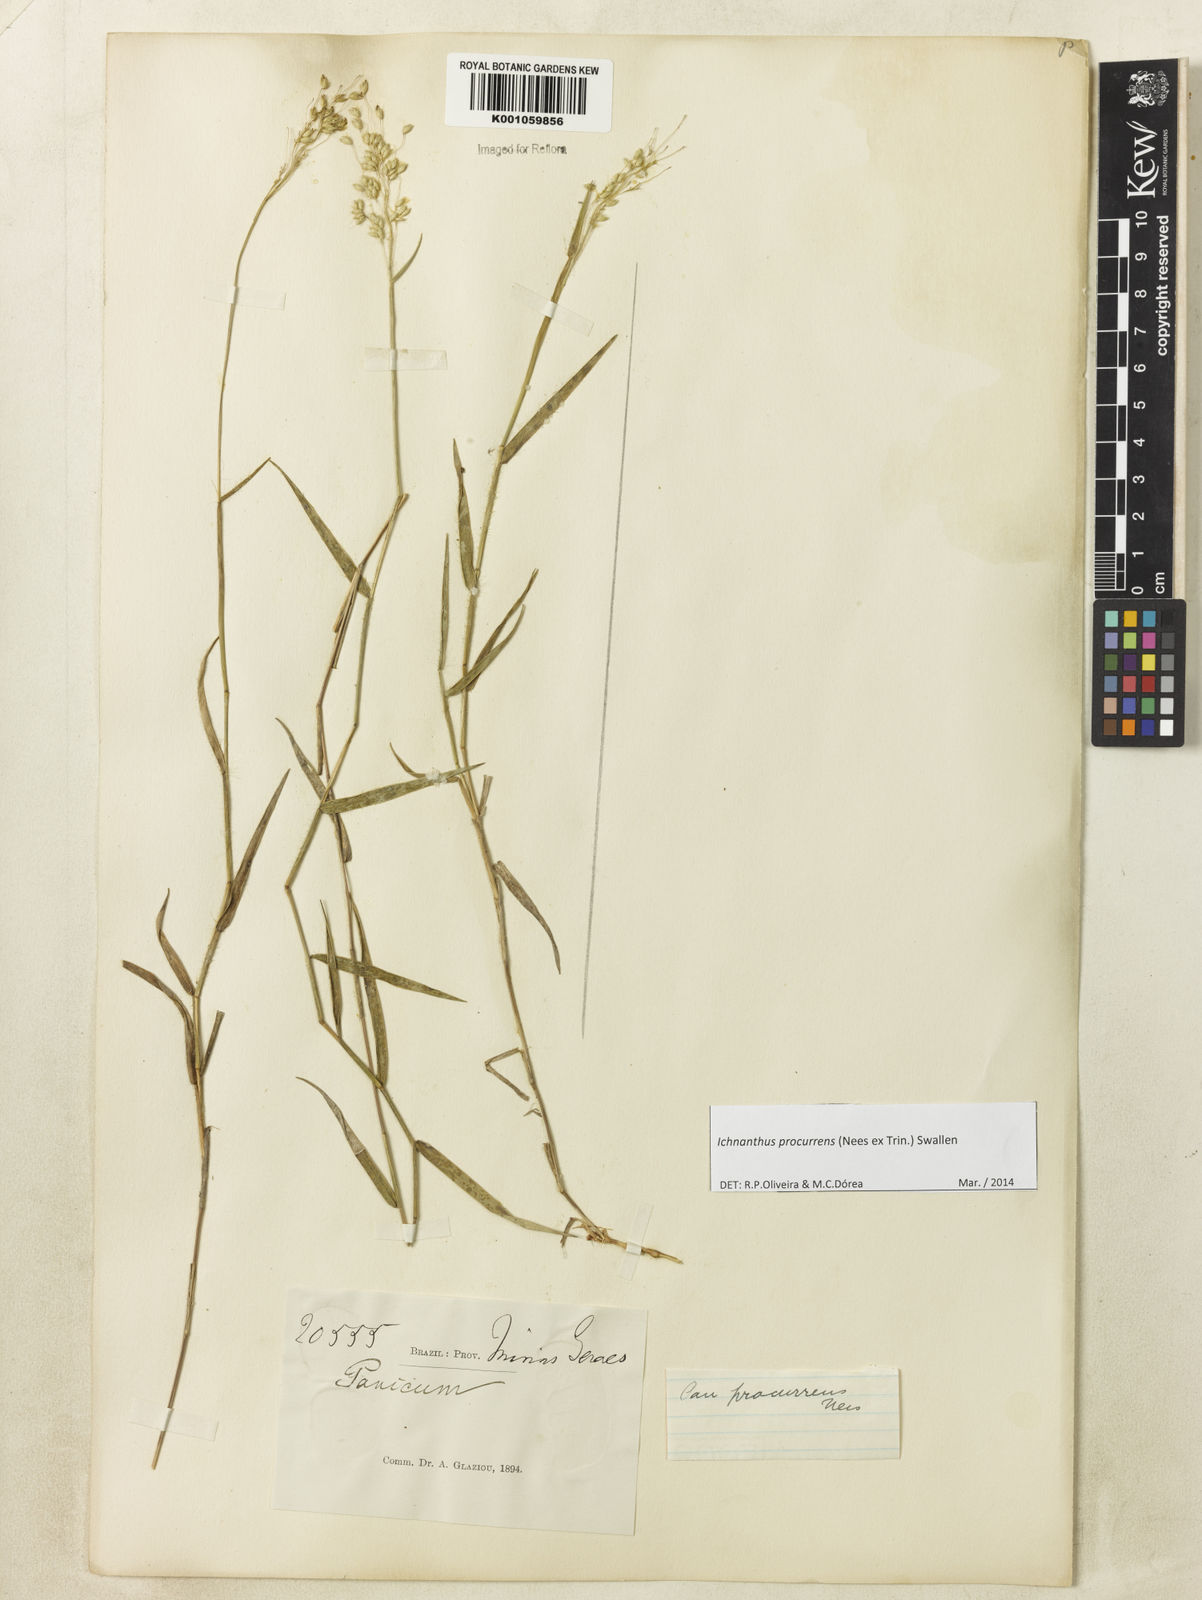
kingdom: Plantae
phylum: Tracheophyta
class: Liliopsida
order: Poales
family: Poaceae
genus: Oedochloa
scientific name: Oedochloa procurrens
